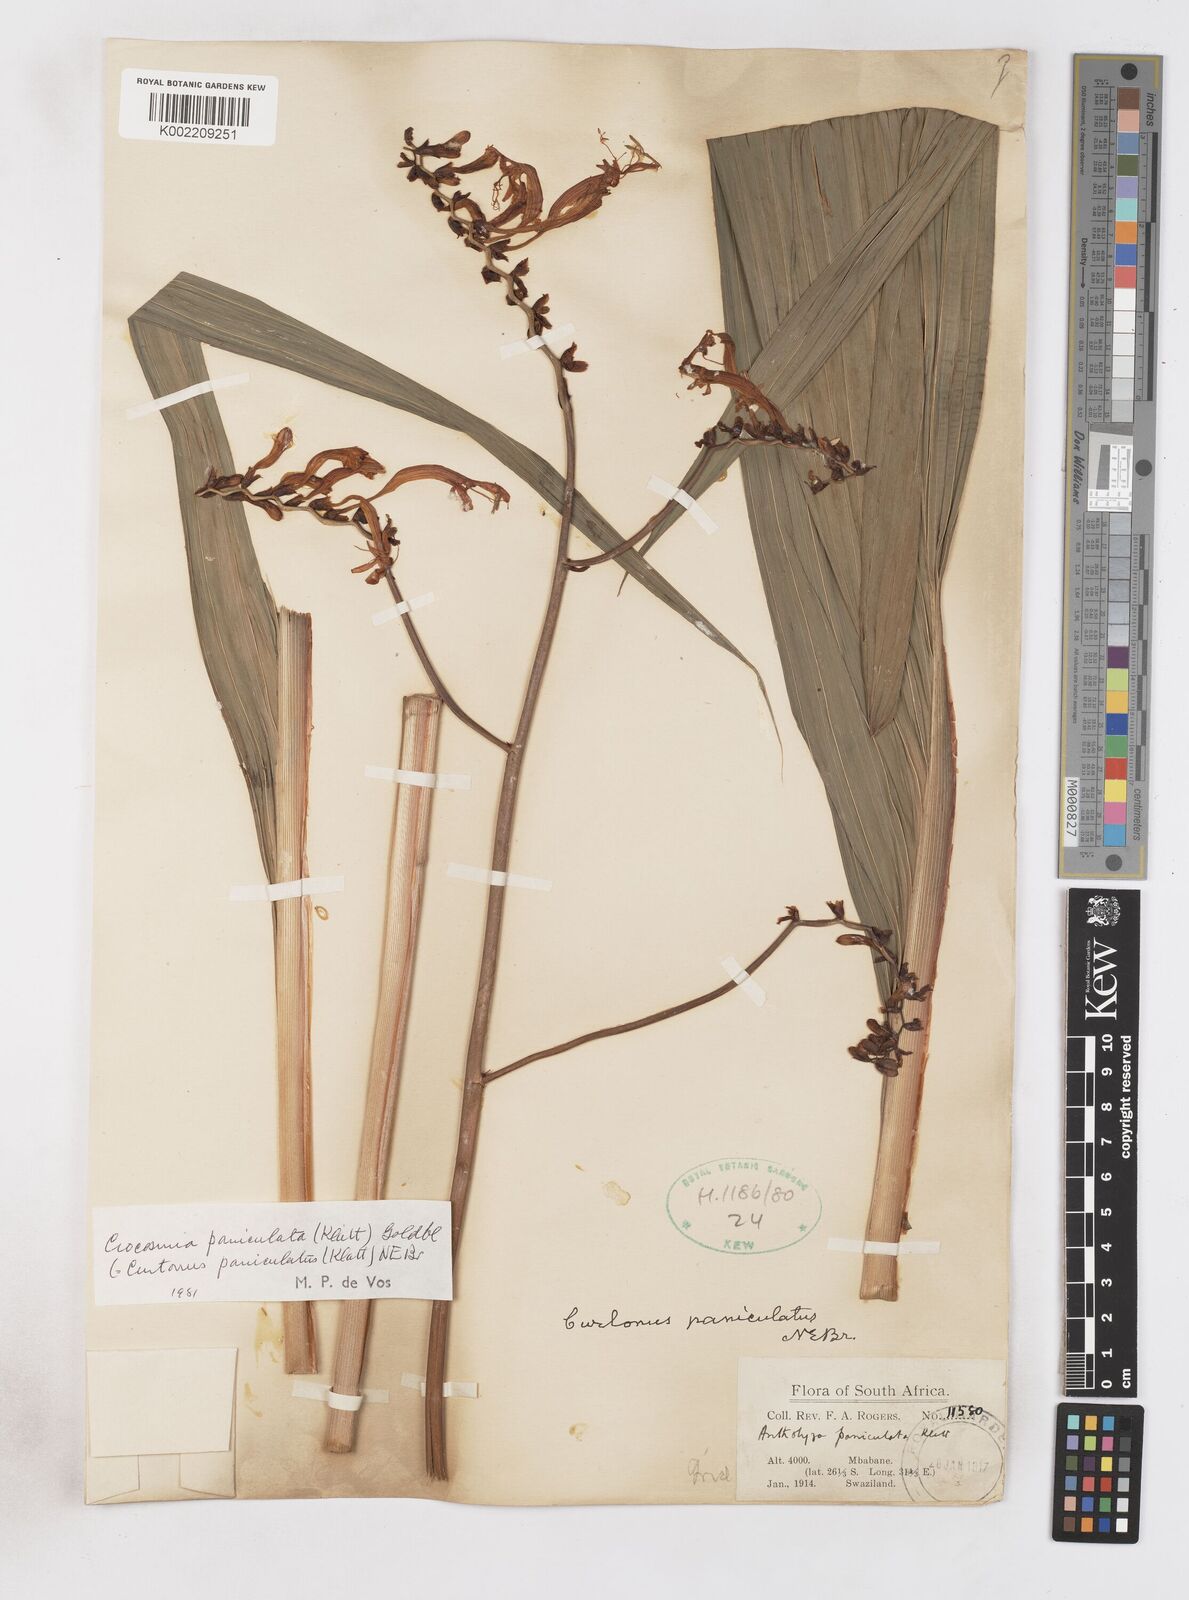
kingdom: Plantae
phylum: Tracheophyta
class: Liliopsida
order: Asparagales
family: Iridaceae
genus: Crocosmia
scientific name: Crocosmia paniculata
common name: Aunt eliza
